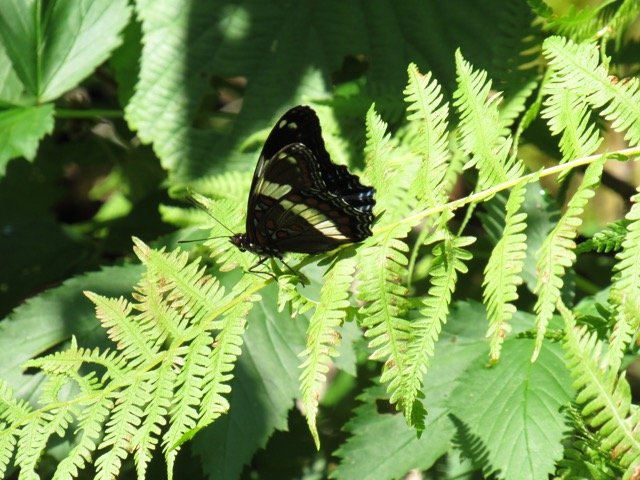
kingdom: Animalia
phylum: Arthropoda
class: Insecta
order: Lepidoptera
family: Nymphalidae
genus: Limenitis
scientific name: Limenitis
